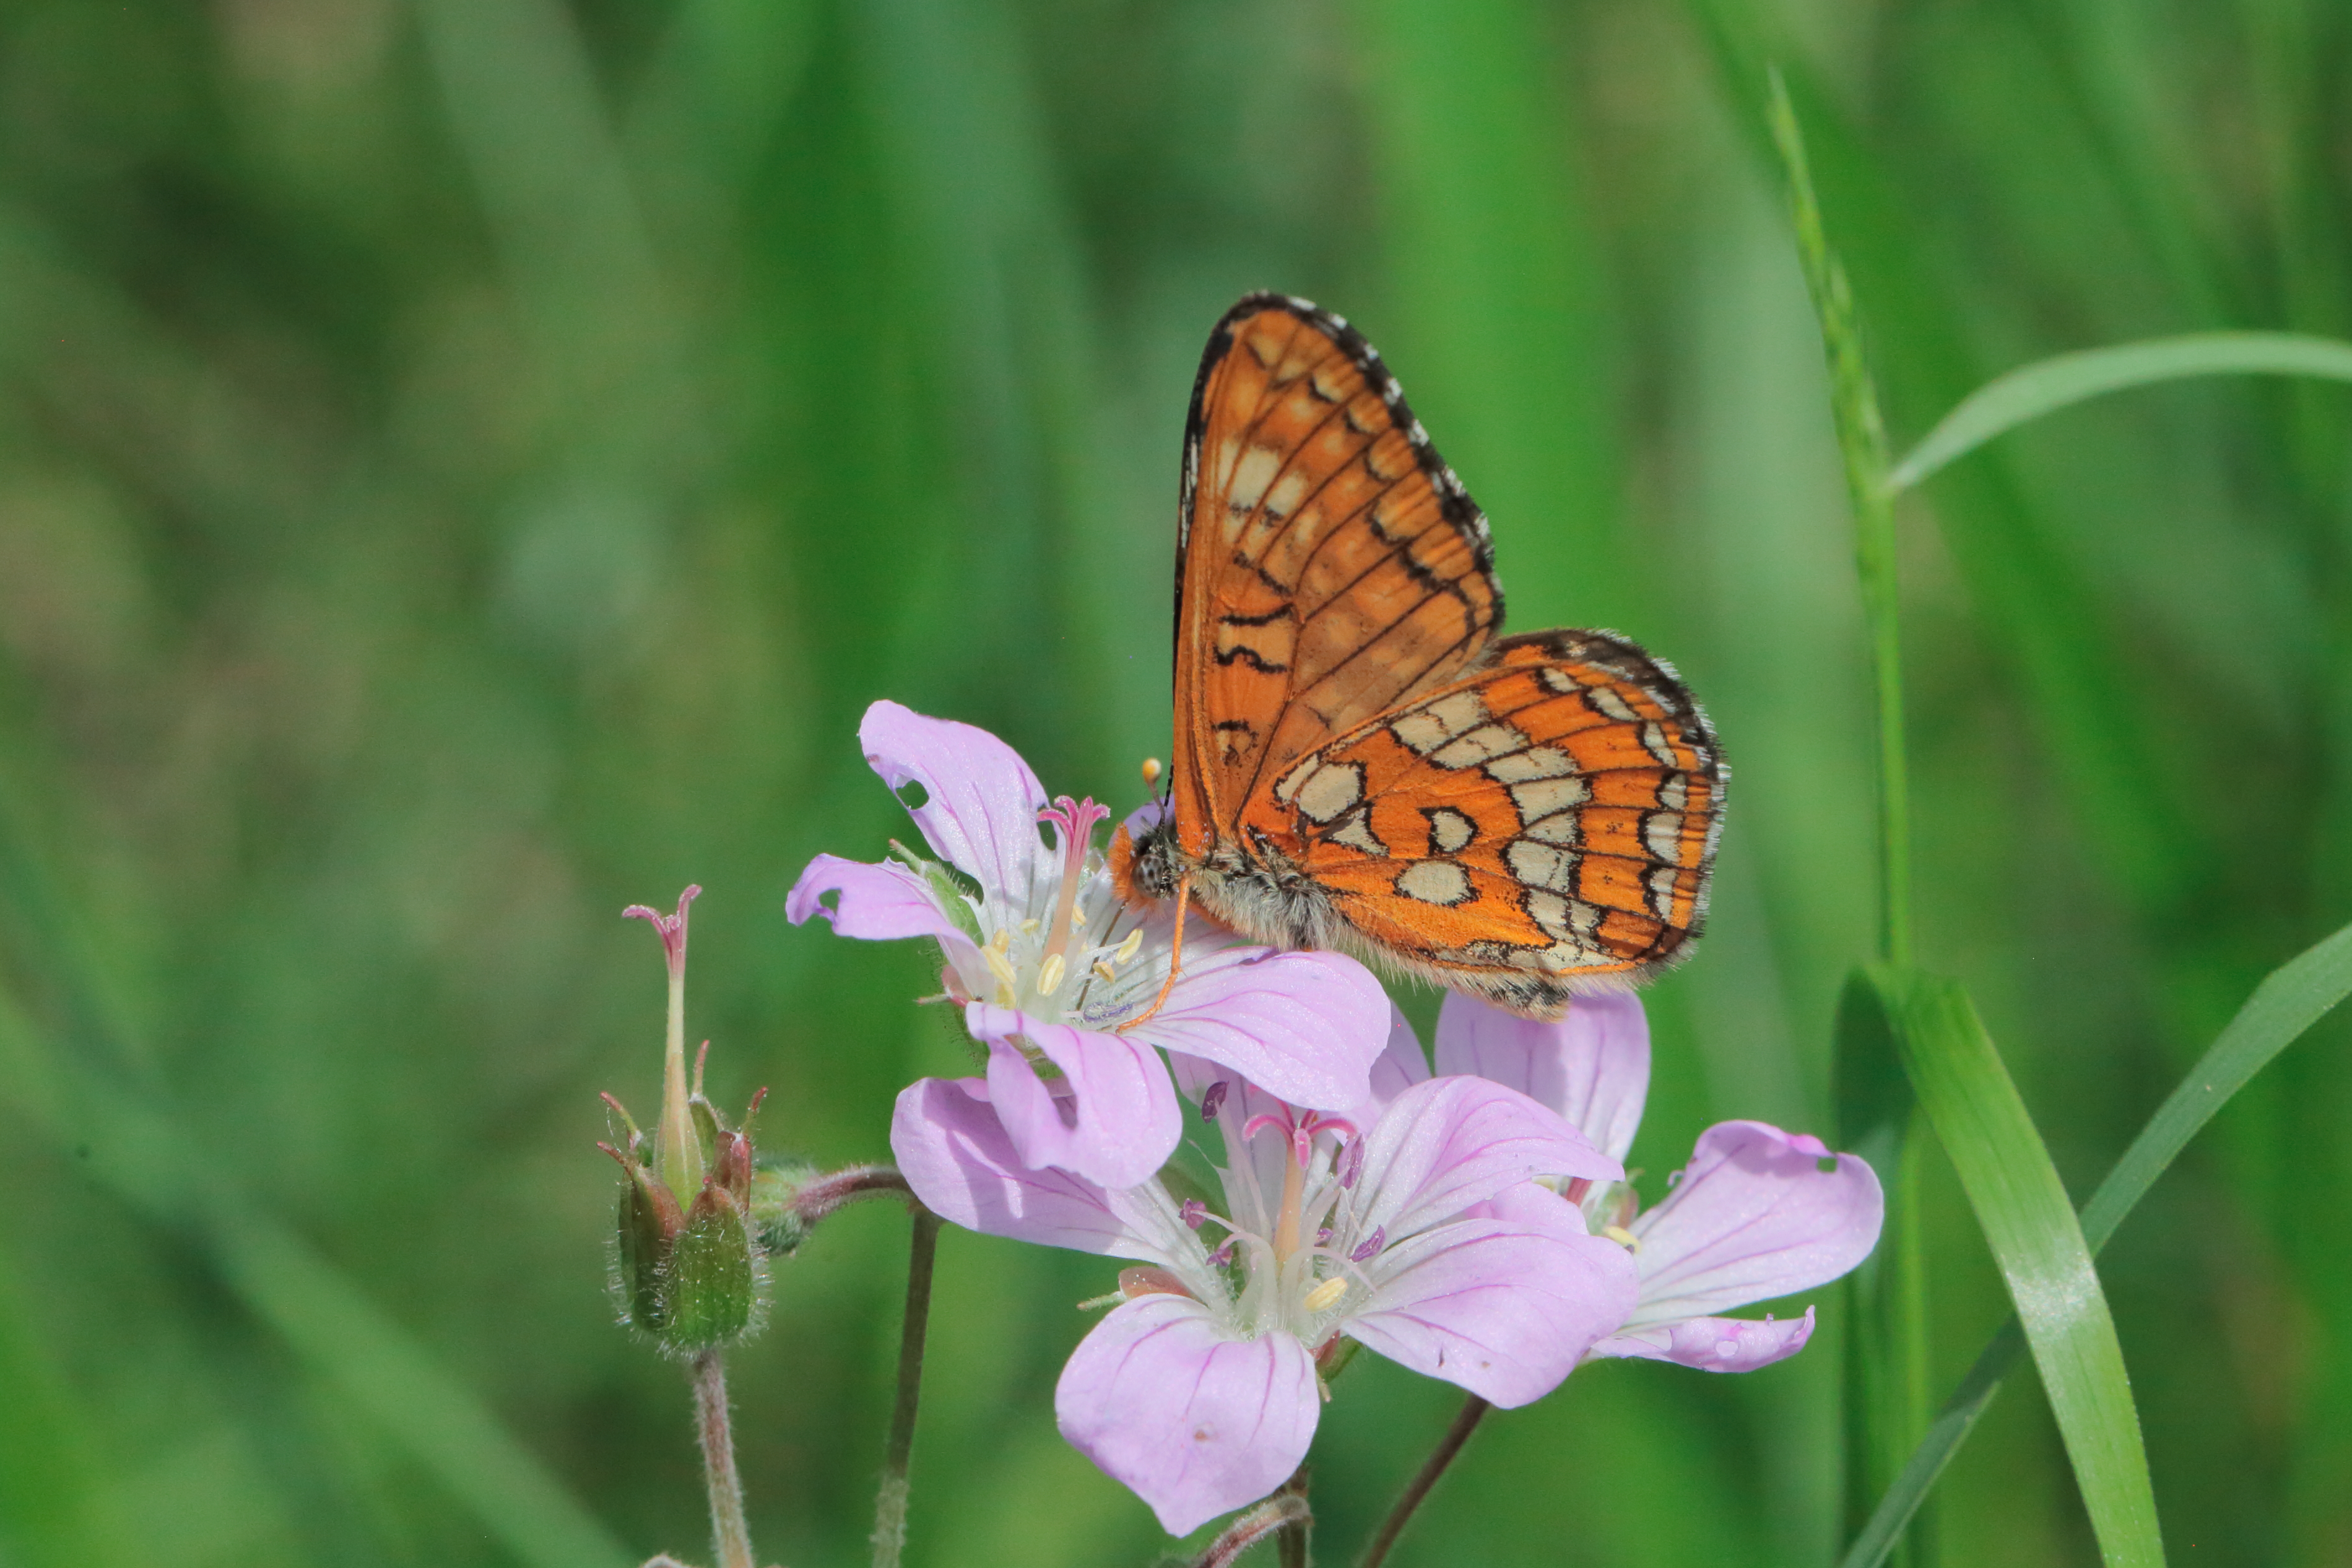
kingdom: Animalia
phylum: Arthropoda
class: Insecta
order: Lepidoptera
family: Nymphalidae
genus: Euphydryas
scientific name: Euphydryas maturna
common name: Scarce fritillary
